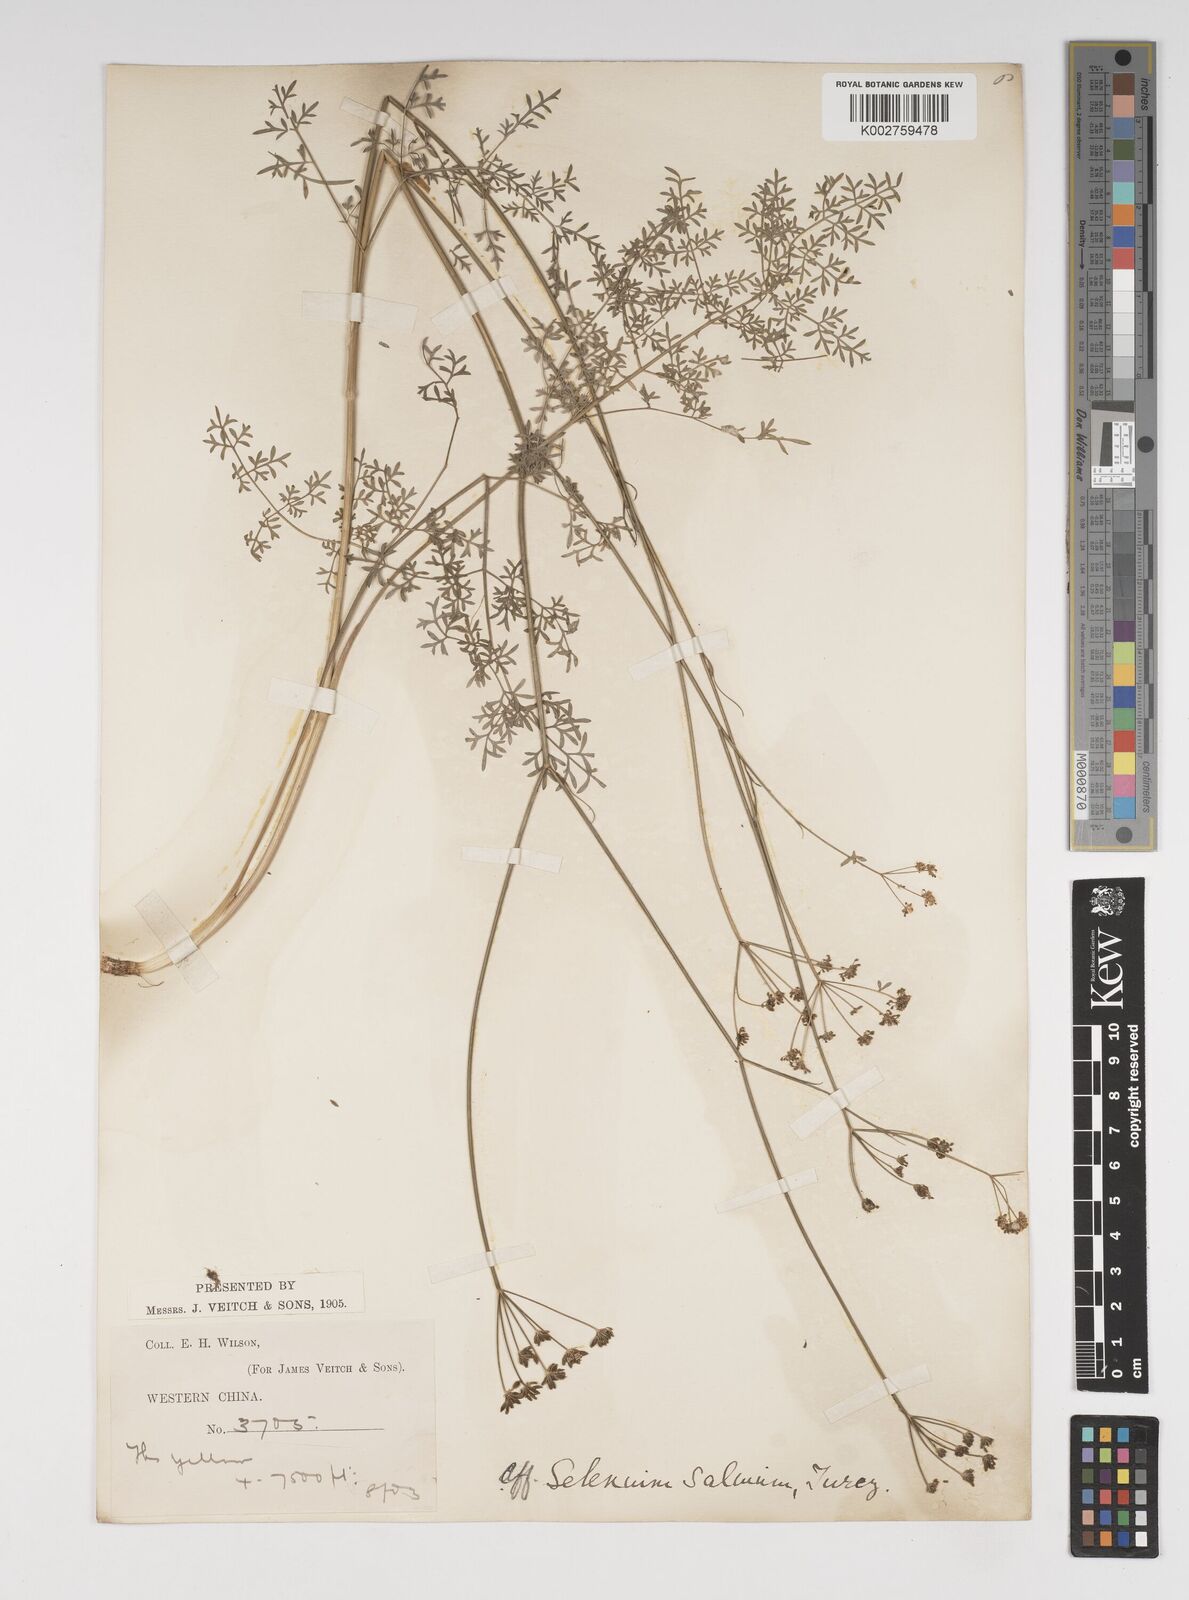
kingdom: Plantae
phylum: Tracheophyta
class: Magnoliopsida
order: Apiales
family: Apiaceae
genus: Kadenia
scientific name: Kadenia salina
